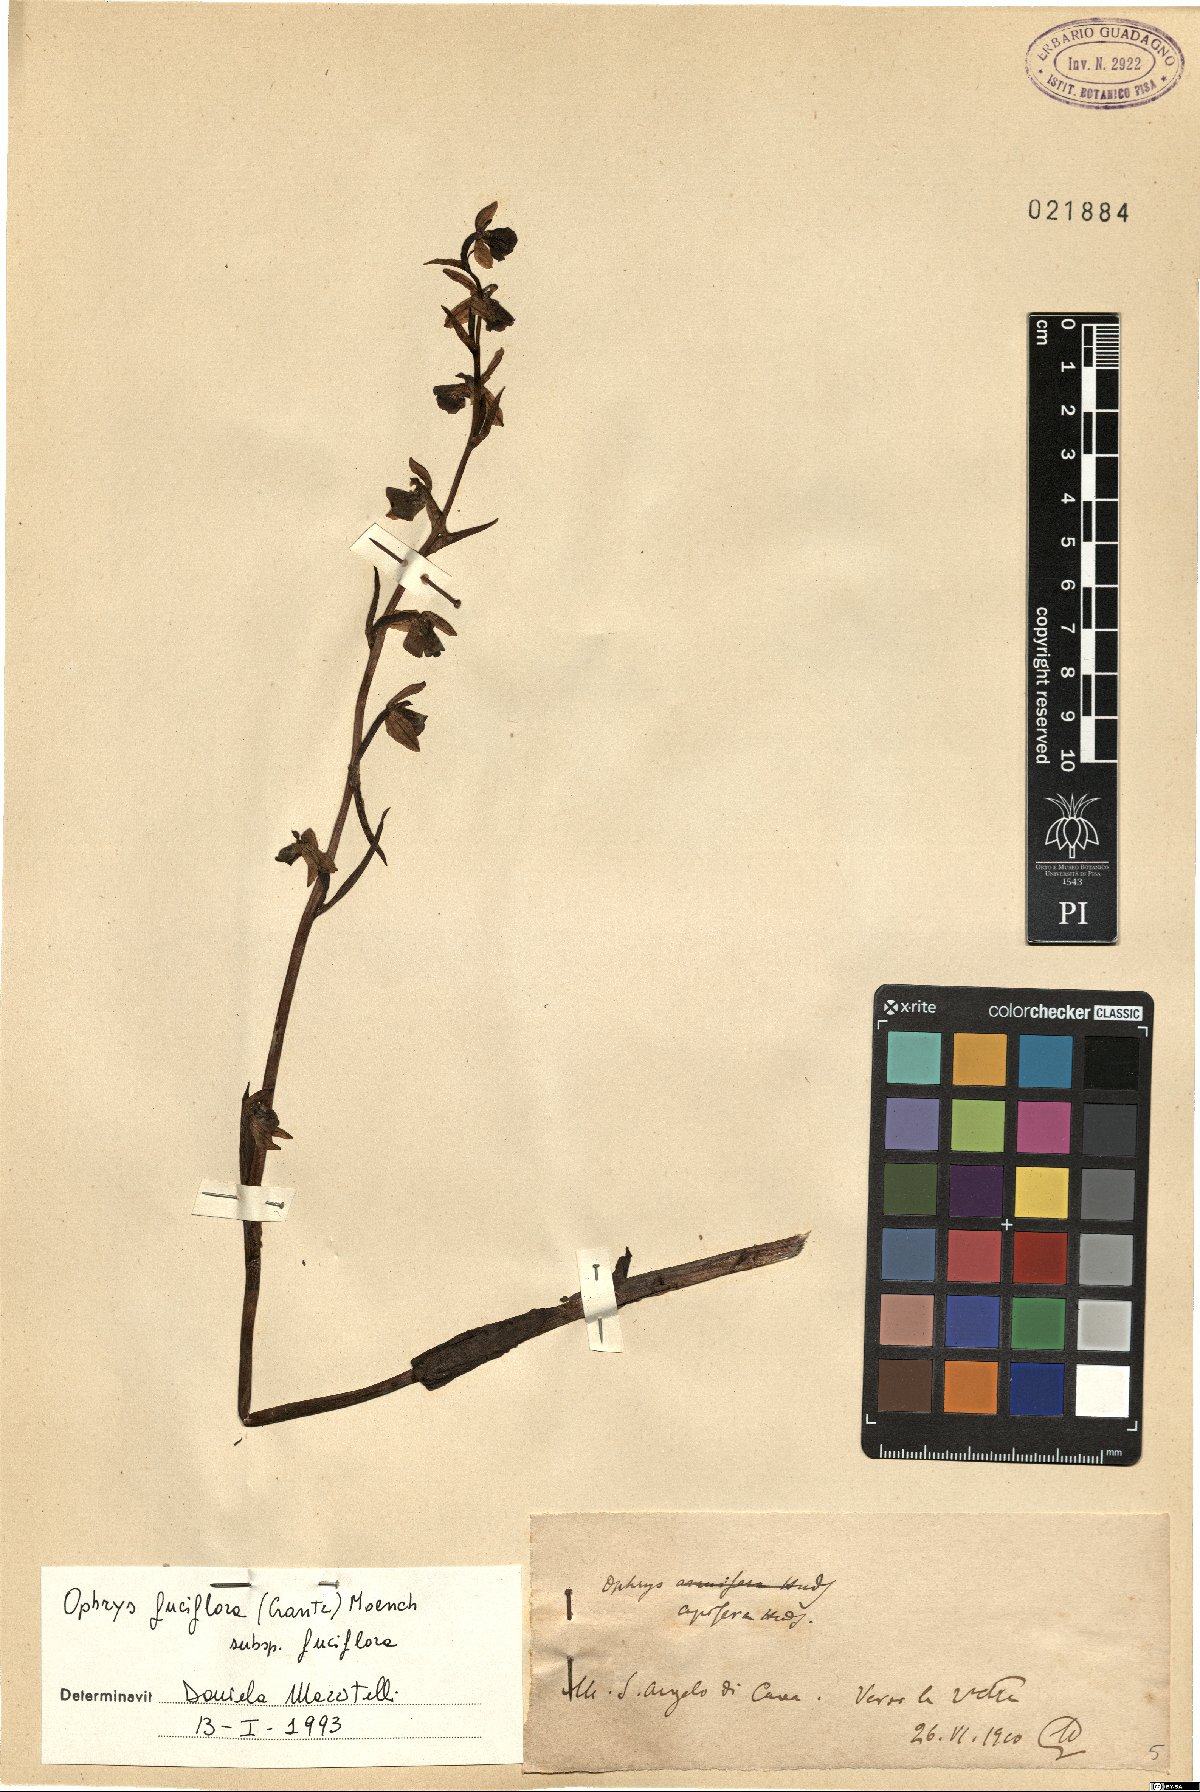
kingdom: Plantae
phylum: Tracheophyta
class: Liliopsida
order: Asparagales
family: Orchidaceae
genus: Ophrys
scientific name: Ophrys holosericea
